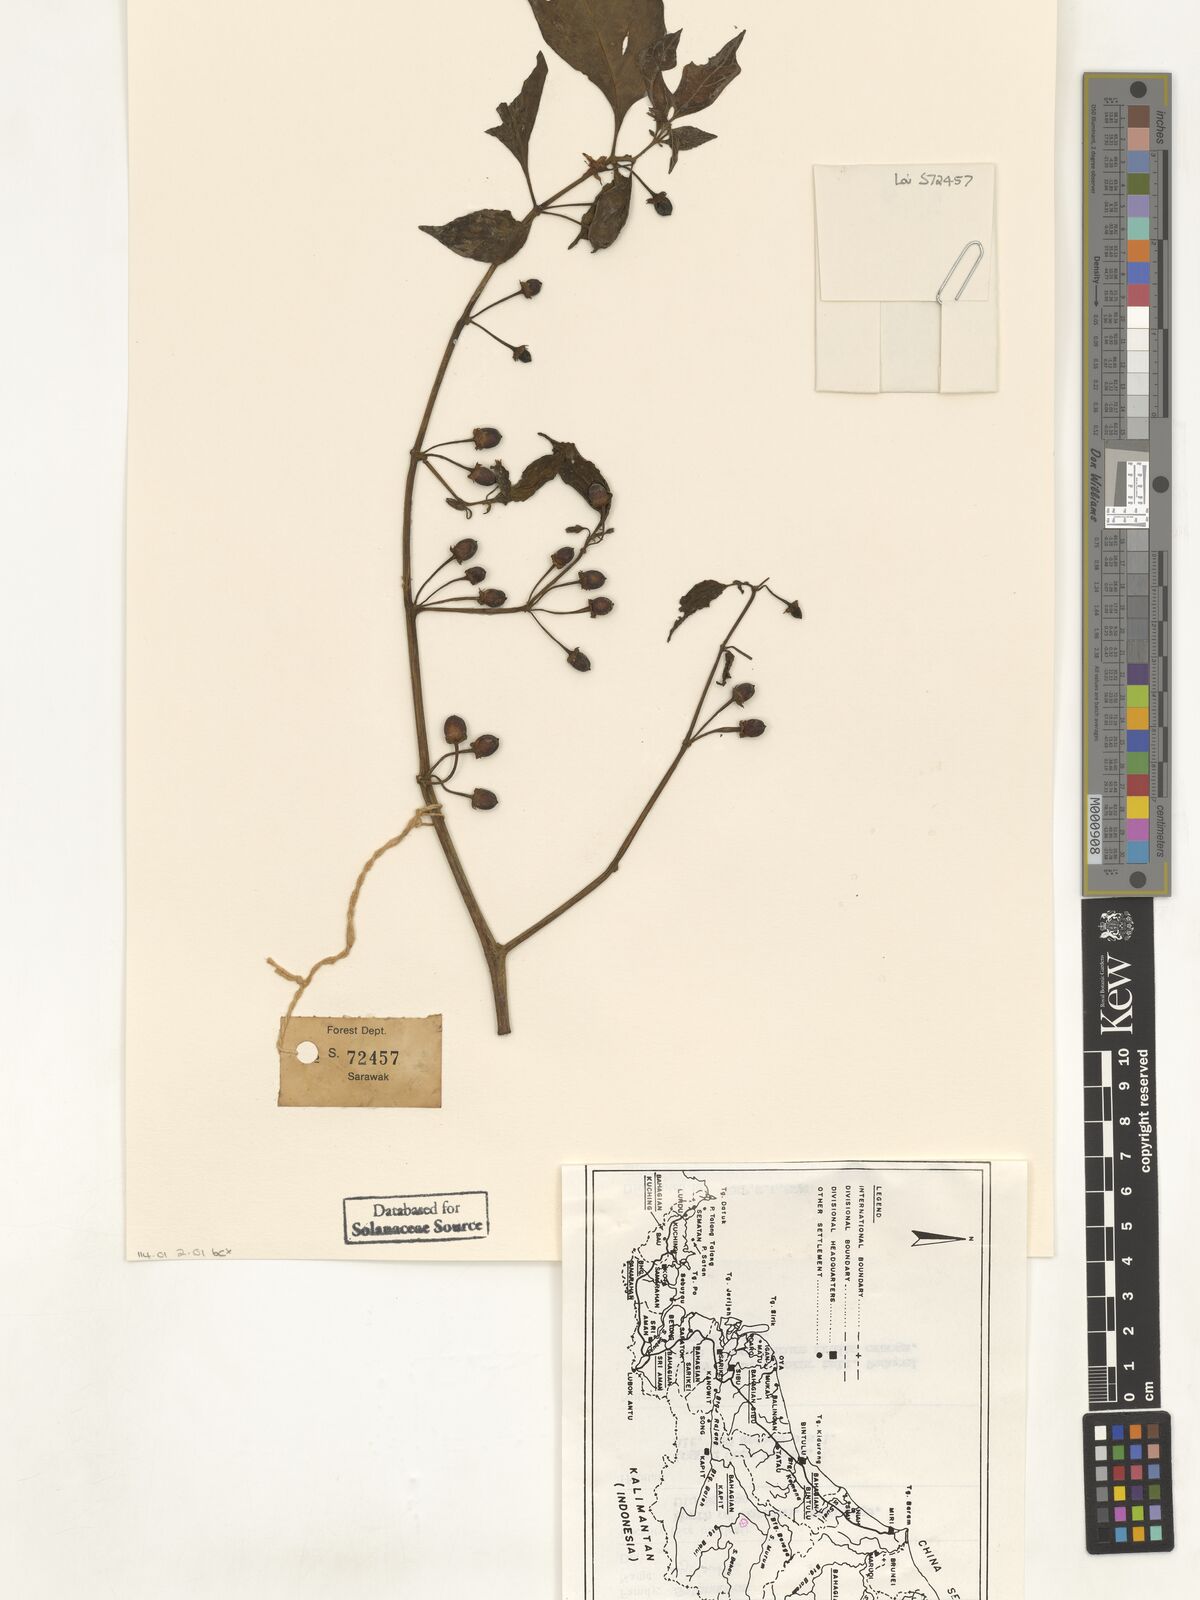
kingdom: Plantae
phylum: Tracheophyta
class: Magnoliopsida
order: Solanales
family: Solanaceae
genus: Lycianthes
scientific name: Lycianthes
